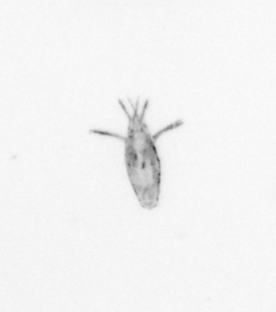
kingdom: Animalia
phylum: Arthropoda
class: Maxillopoda
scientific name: Maxillopoda
